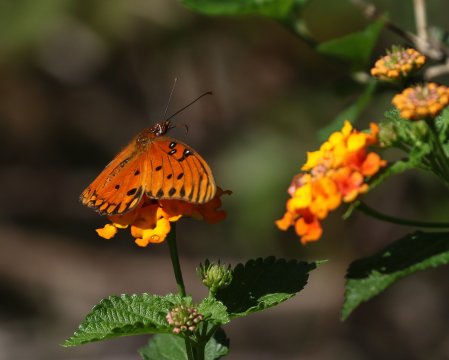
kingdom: Animalia
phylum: Arthropoda
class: Insecta
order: Lepidoptera
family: Nymphalidae
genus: Dione
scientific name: Dione vanillae
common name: Gulf Fritillary
